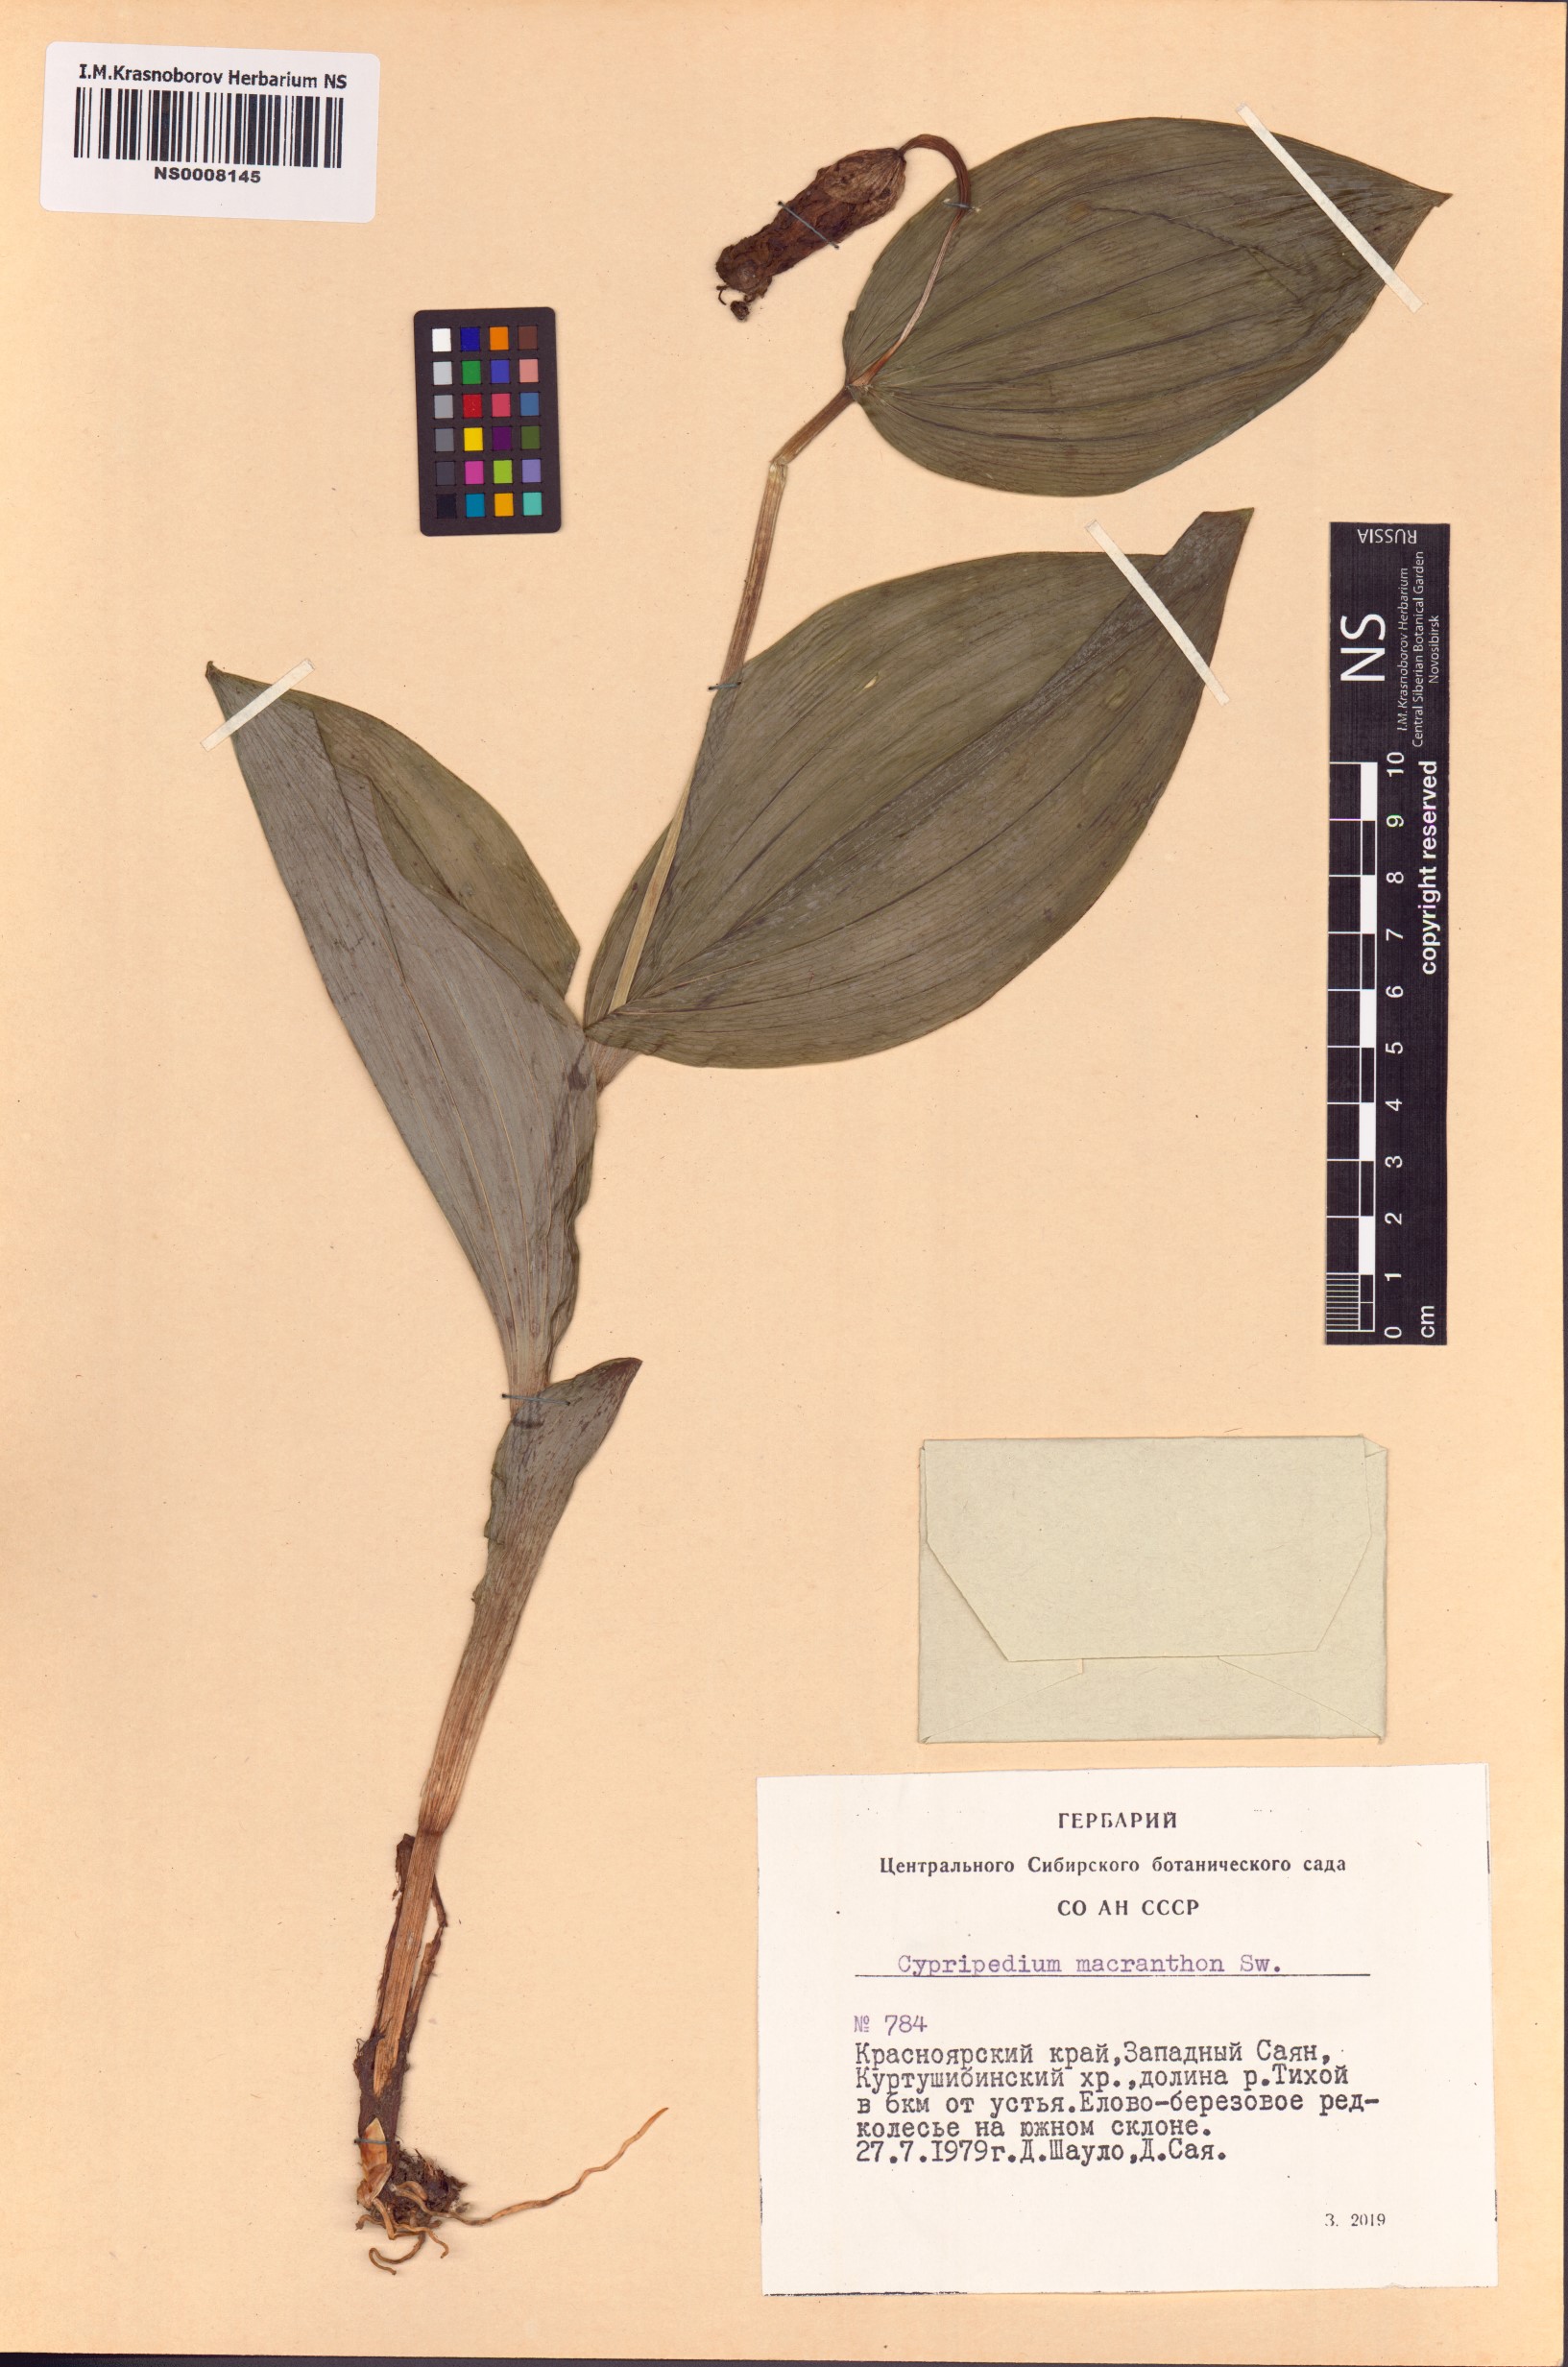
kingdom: Plantae
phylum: Tracheophyta
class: Liliopsida
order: Asparagales
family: Orchidaceae
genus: Cypripedium
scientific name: Cypripedium macranthos
